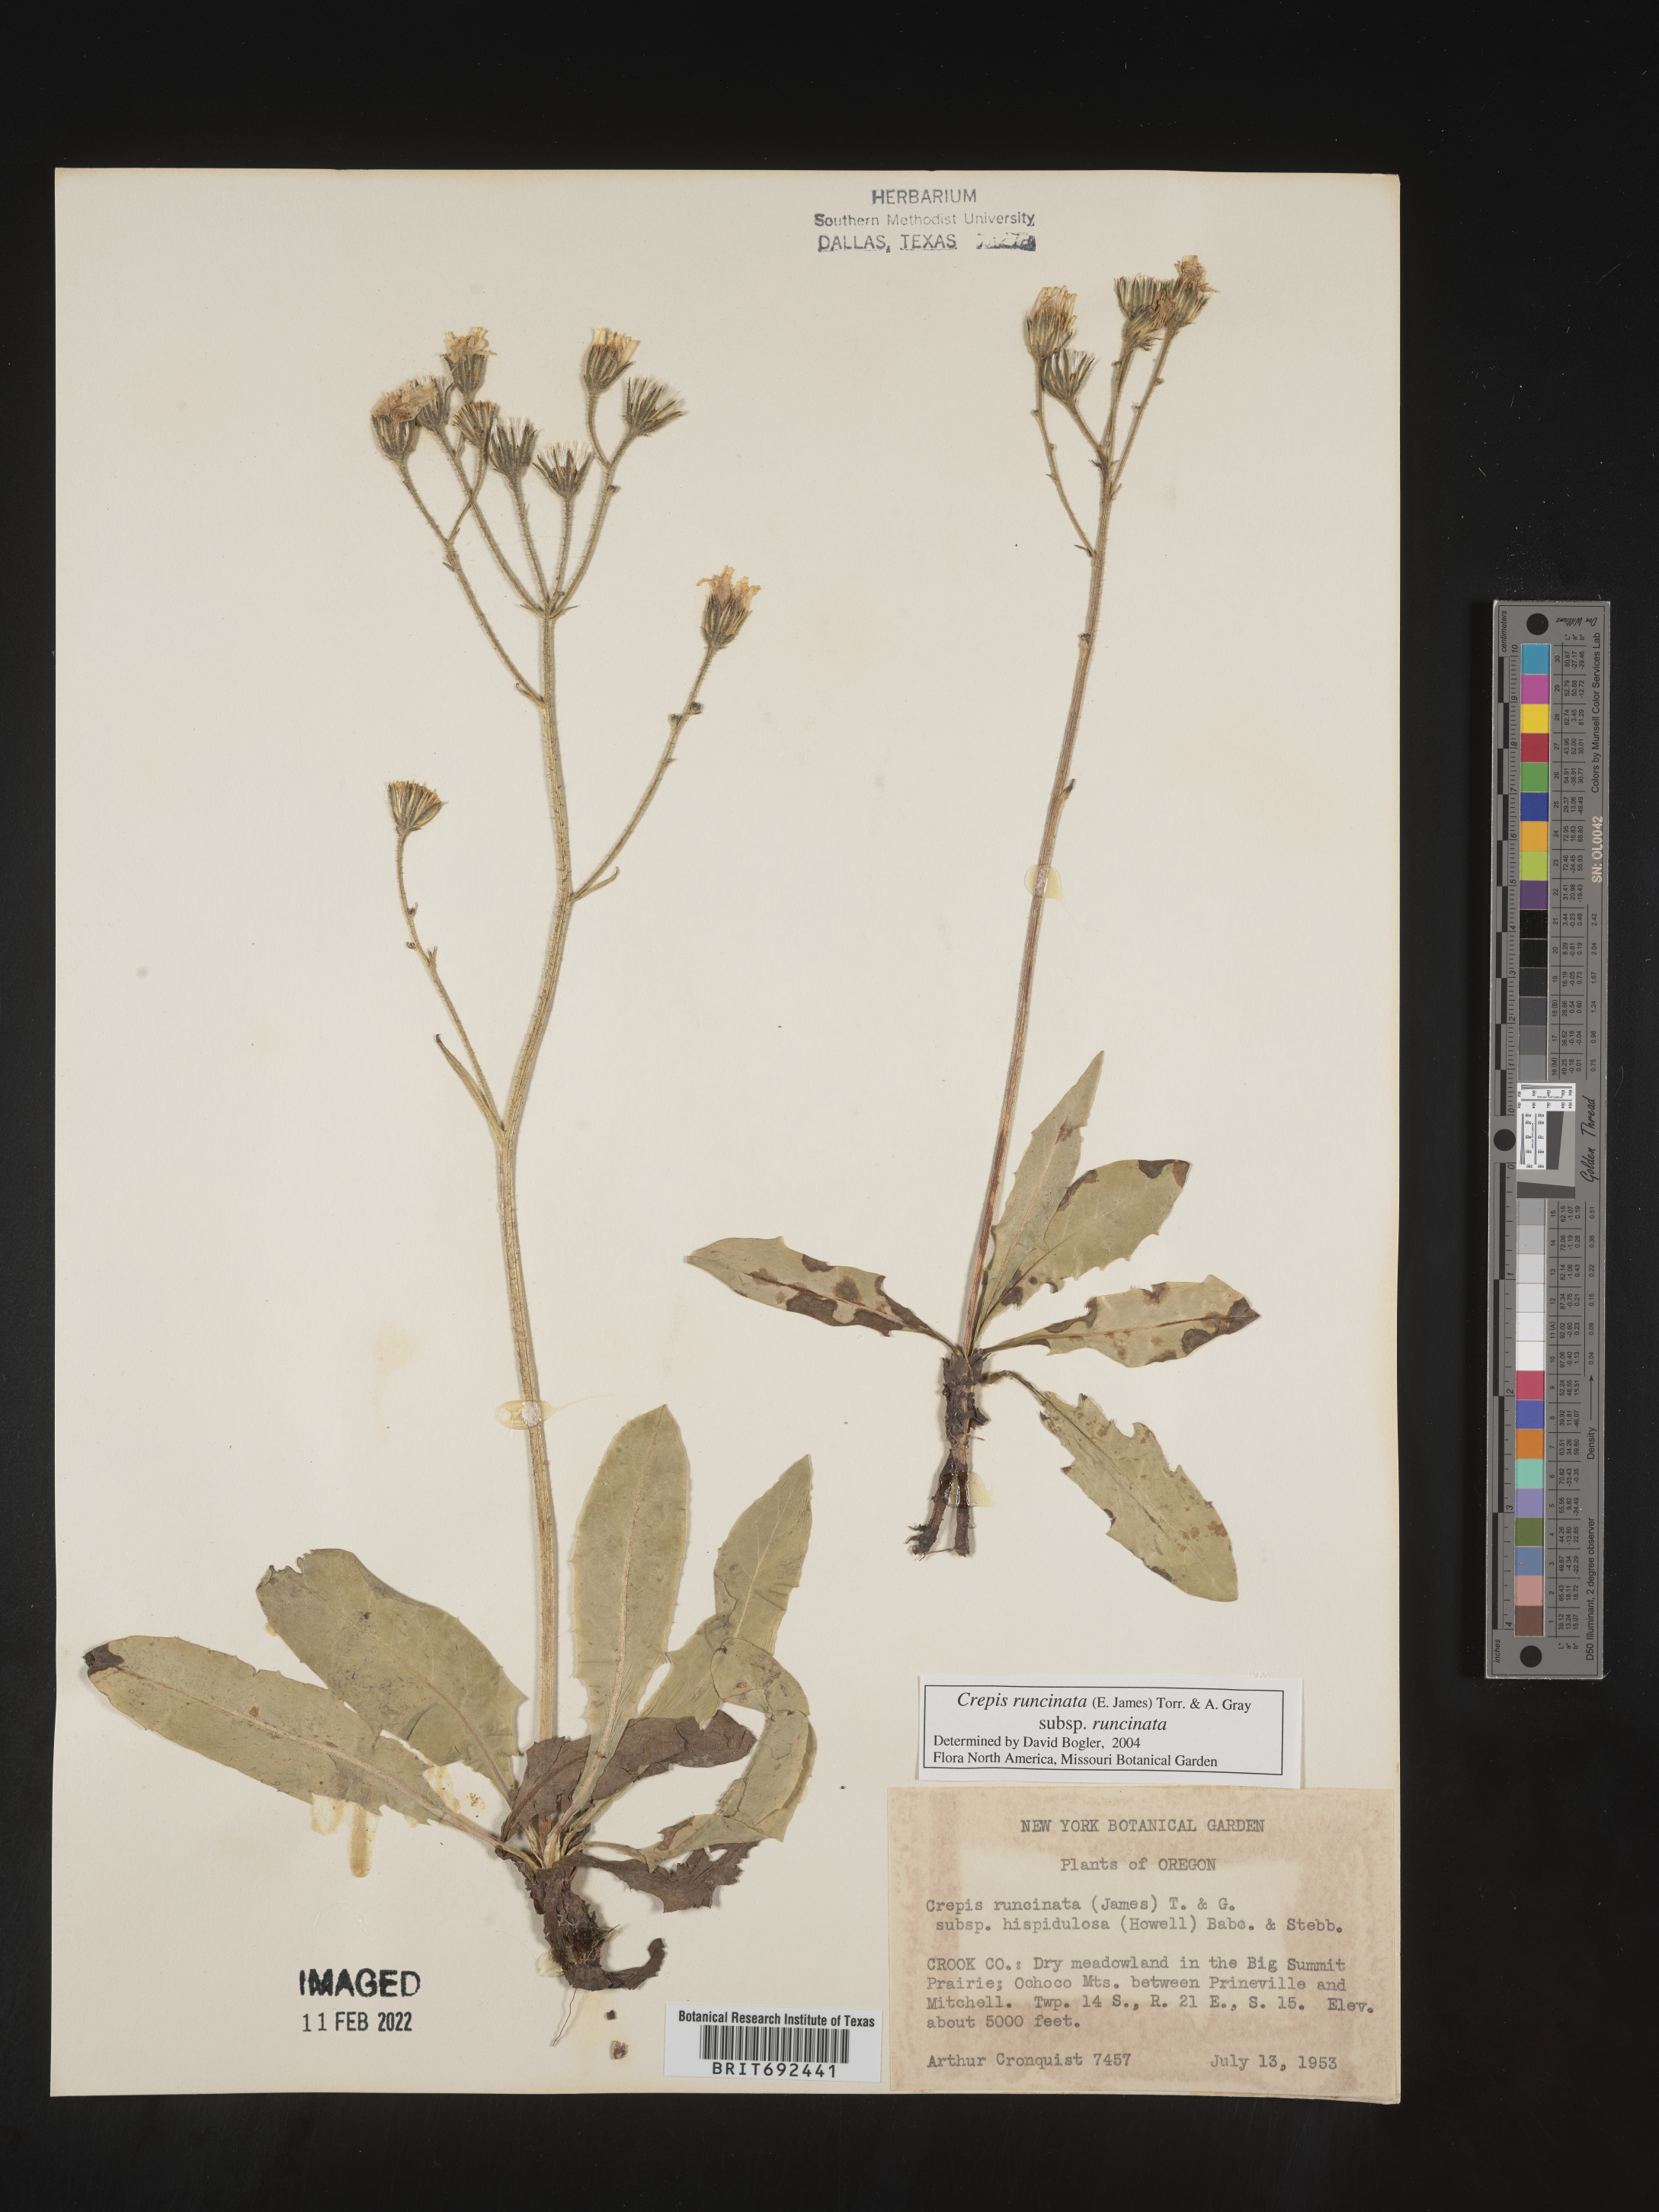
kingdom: Plantae
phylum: Tracheophyta
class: Magnoliopsida
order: Asterales
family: Asteraceae
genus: Crepis
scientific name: Crepis
